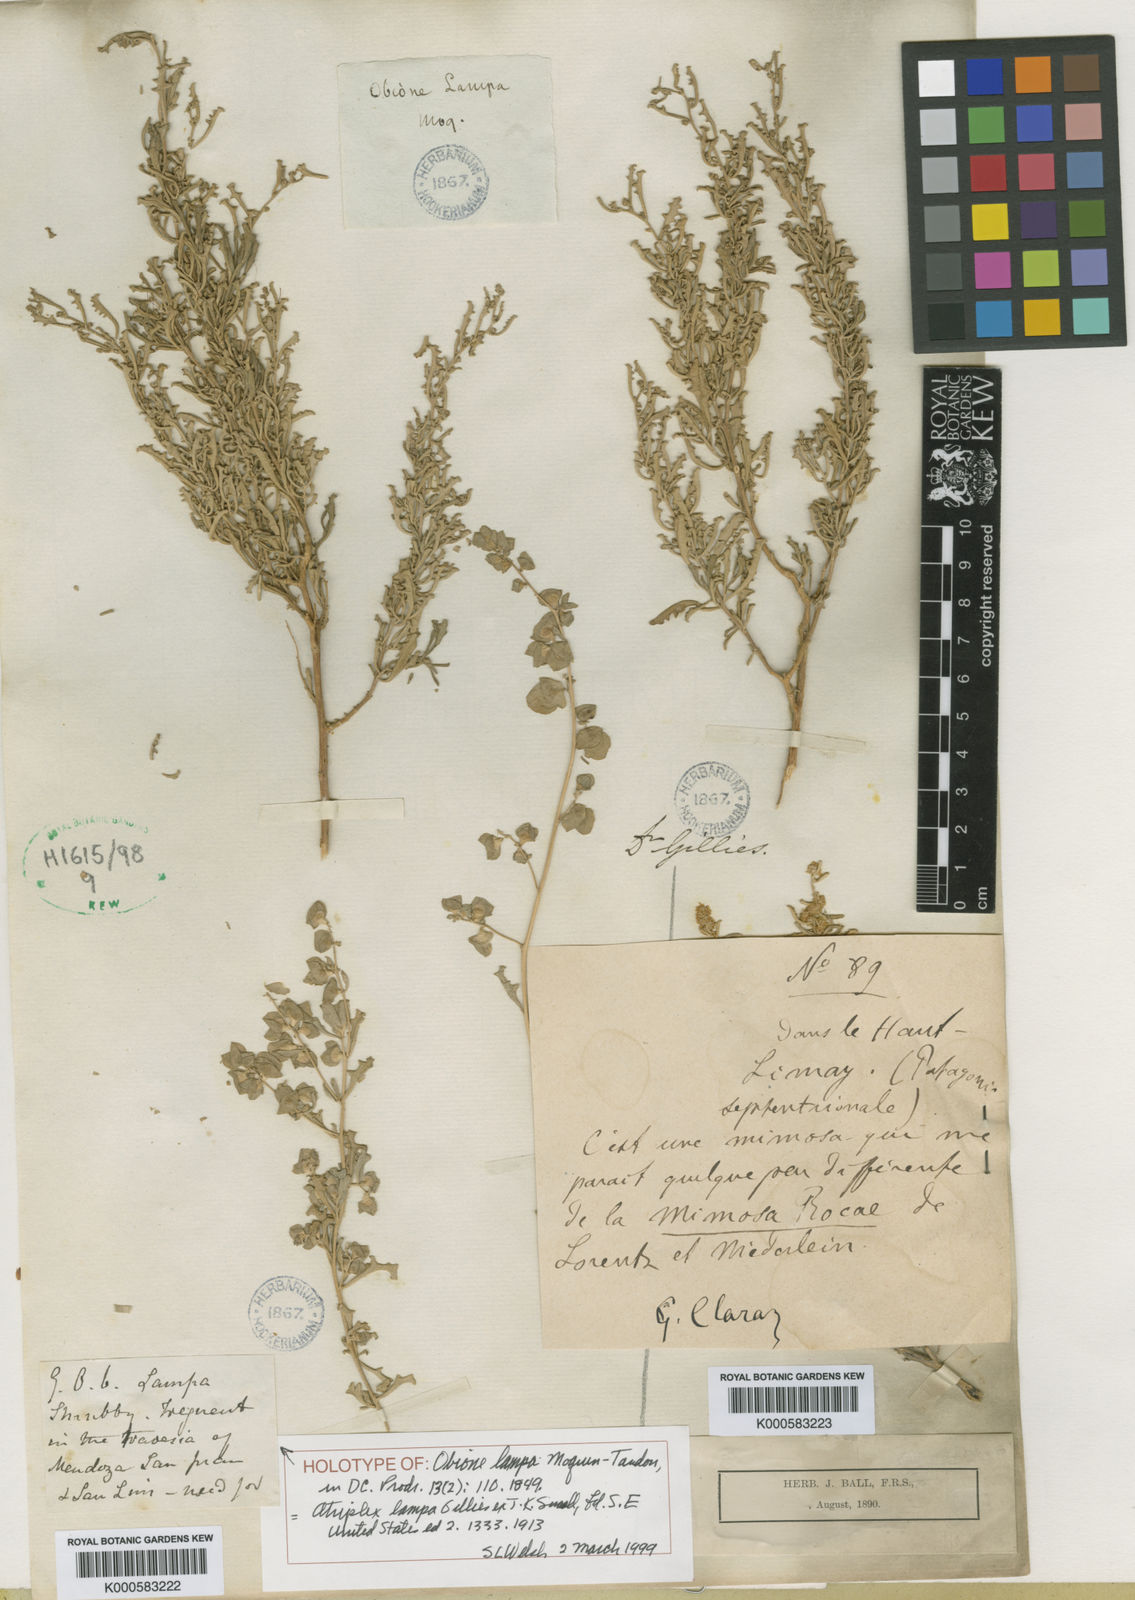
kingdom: Plantae
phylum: Tracheophyta
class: Magnoliopsida
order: Caryophyllales
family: Amaranthaceae
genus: Atriplex
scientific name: Atriplex
